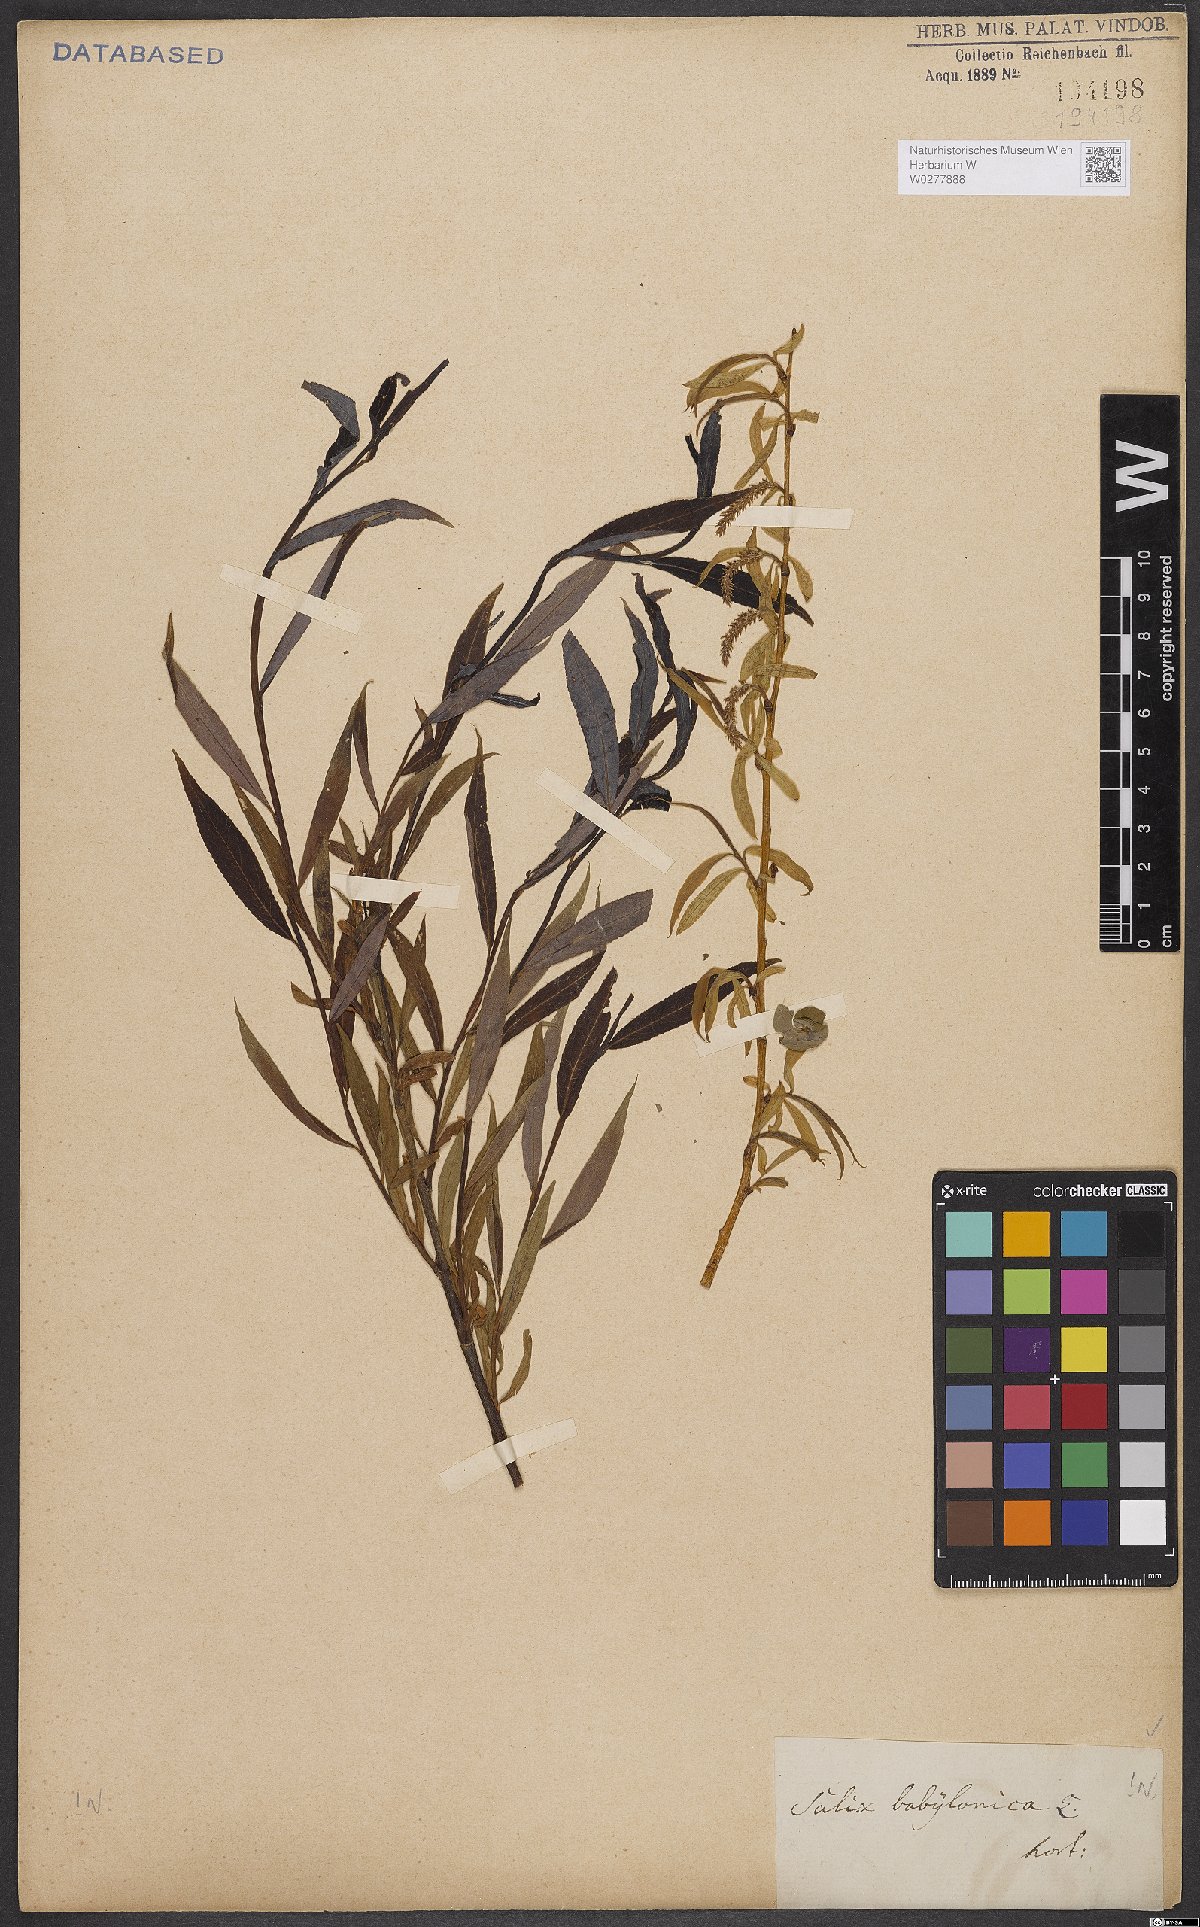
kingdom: Plantae
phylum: Tracheophyta
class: Magnoliopsida
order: Malpighiales
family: Salicaceae
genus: Salix
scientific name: Salix babylonica
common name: Weeping willow
